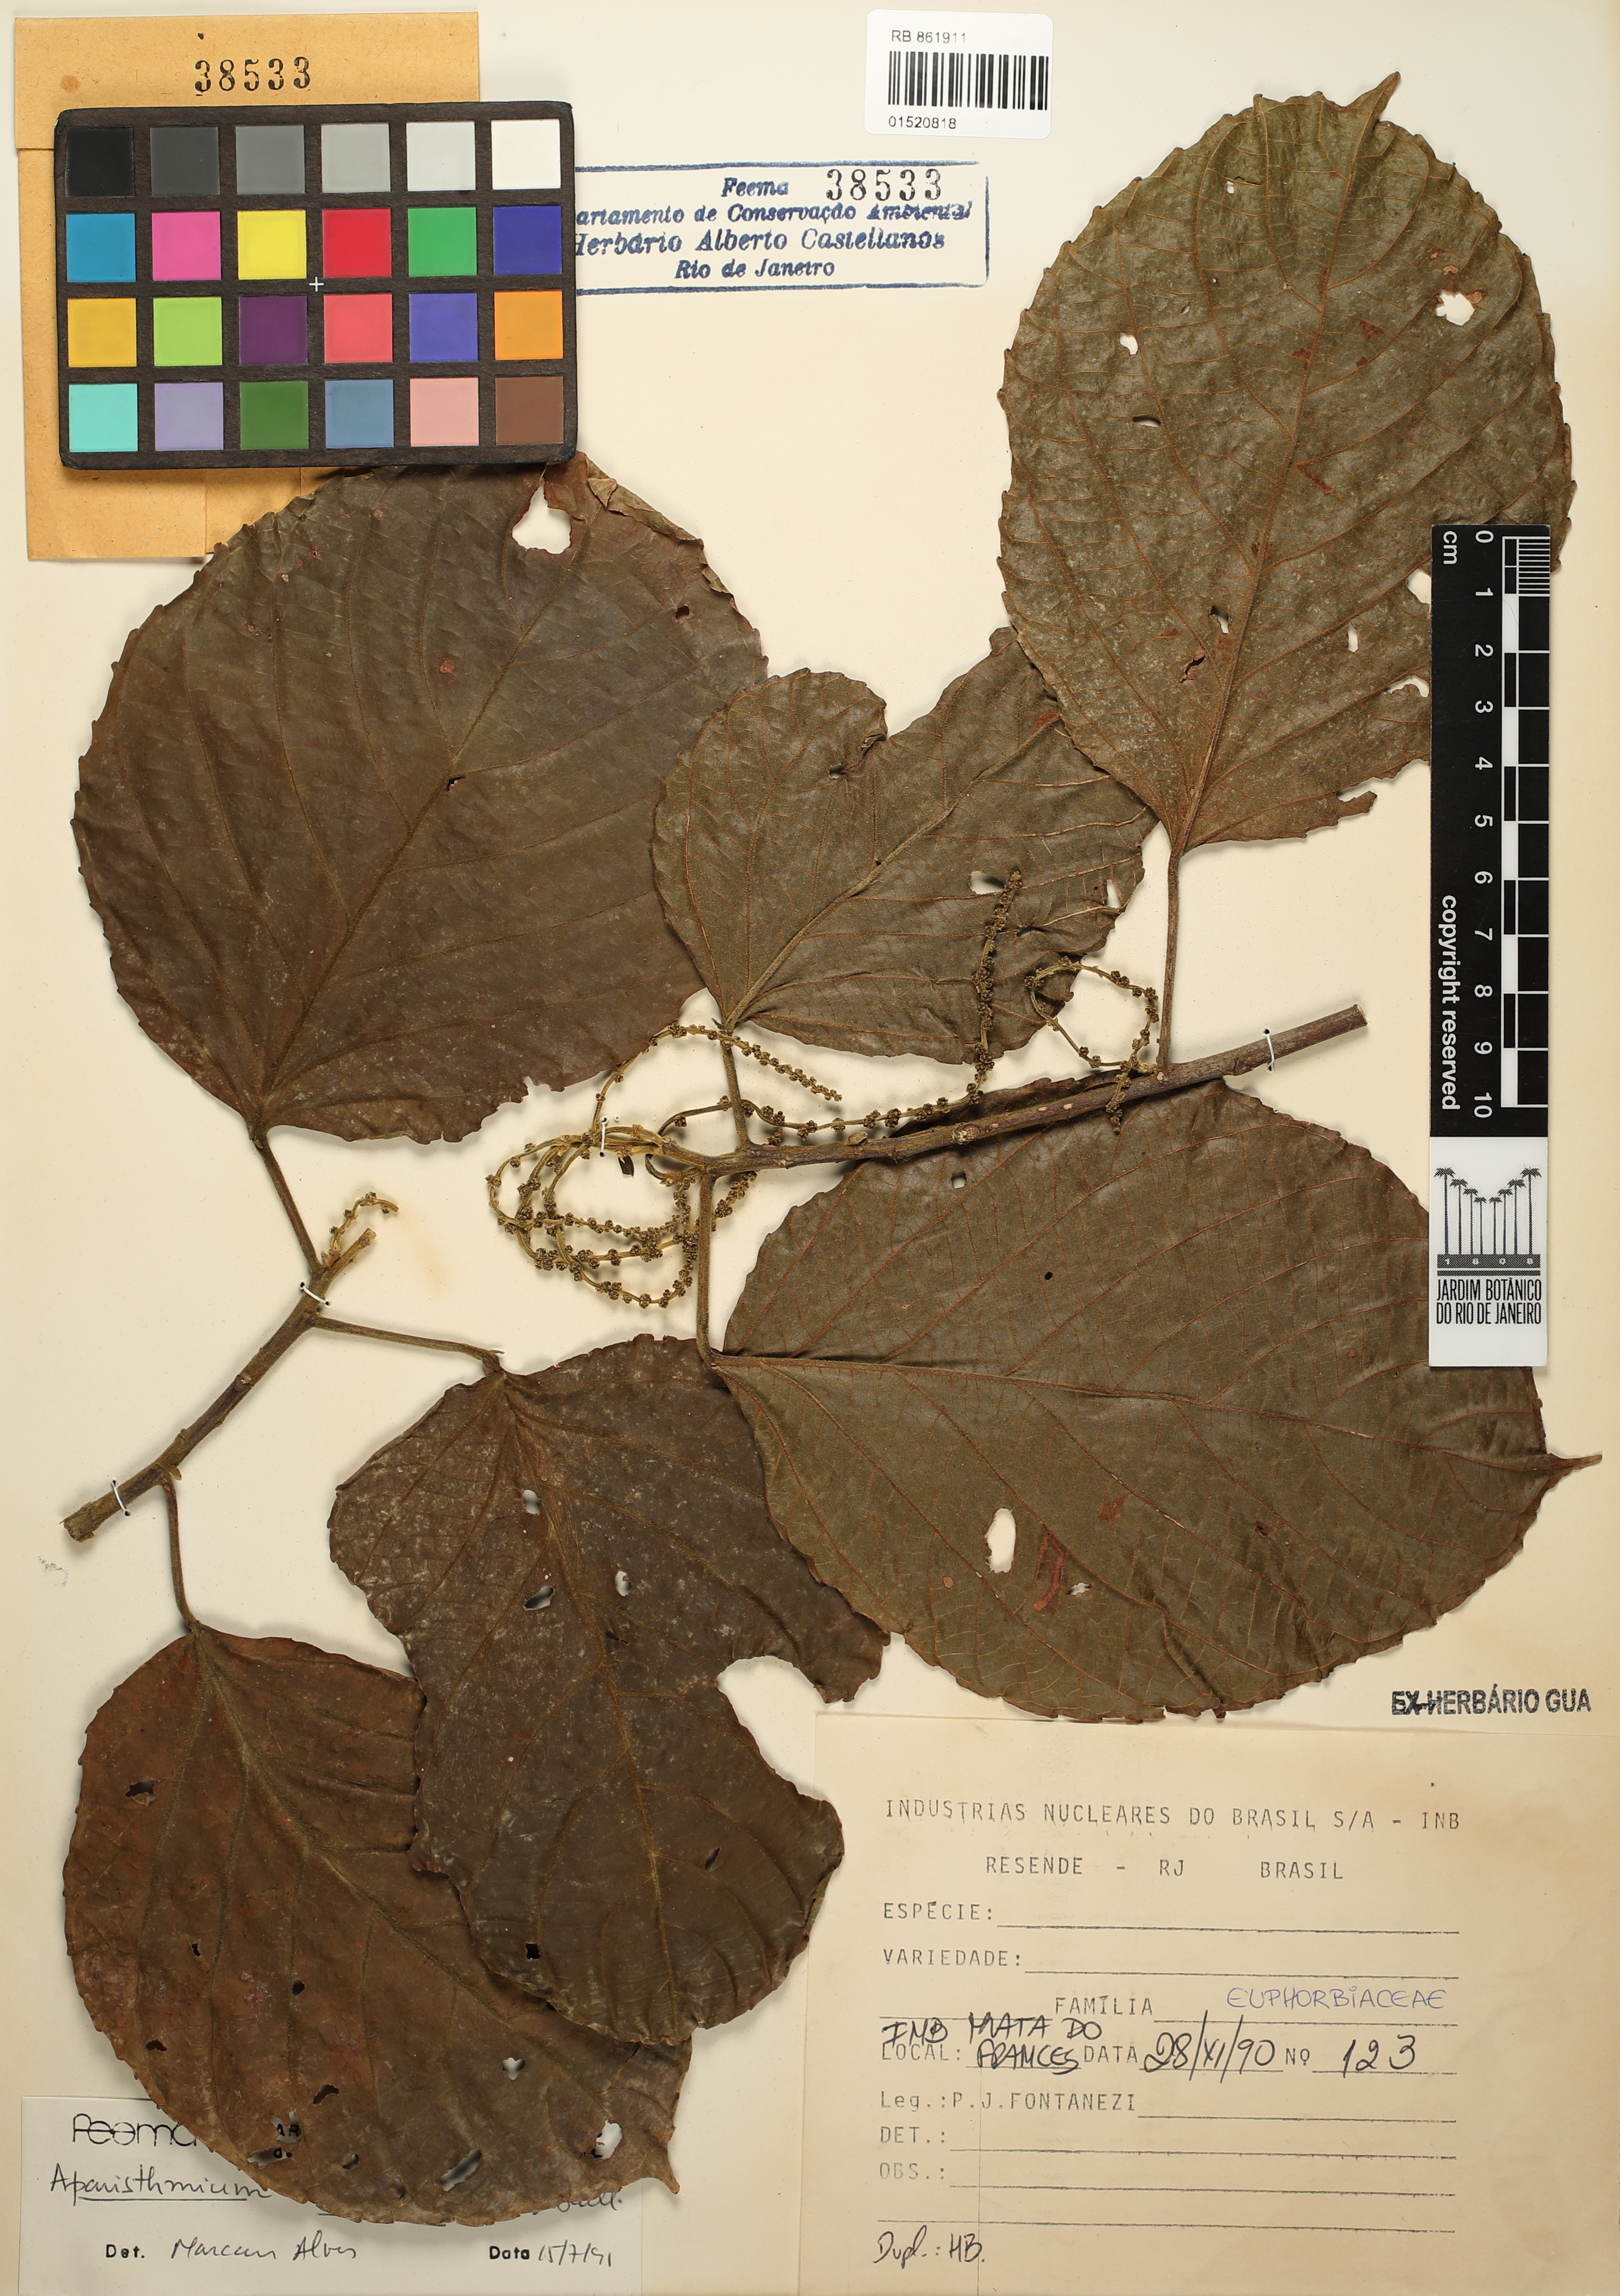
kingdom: Plantae
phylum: Tracheophyta
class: Magnoliopsida
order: Malpighiales
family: Euphorbiaceae
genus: Aparisthmium
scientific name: Aparisthmium cordatum
